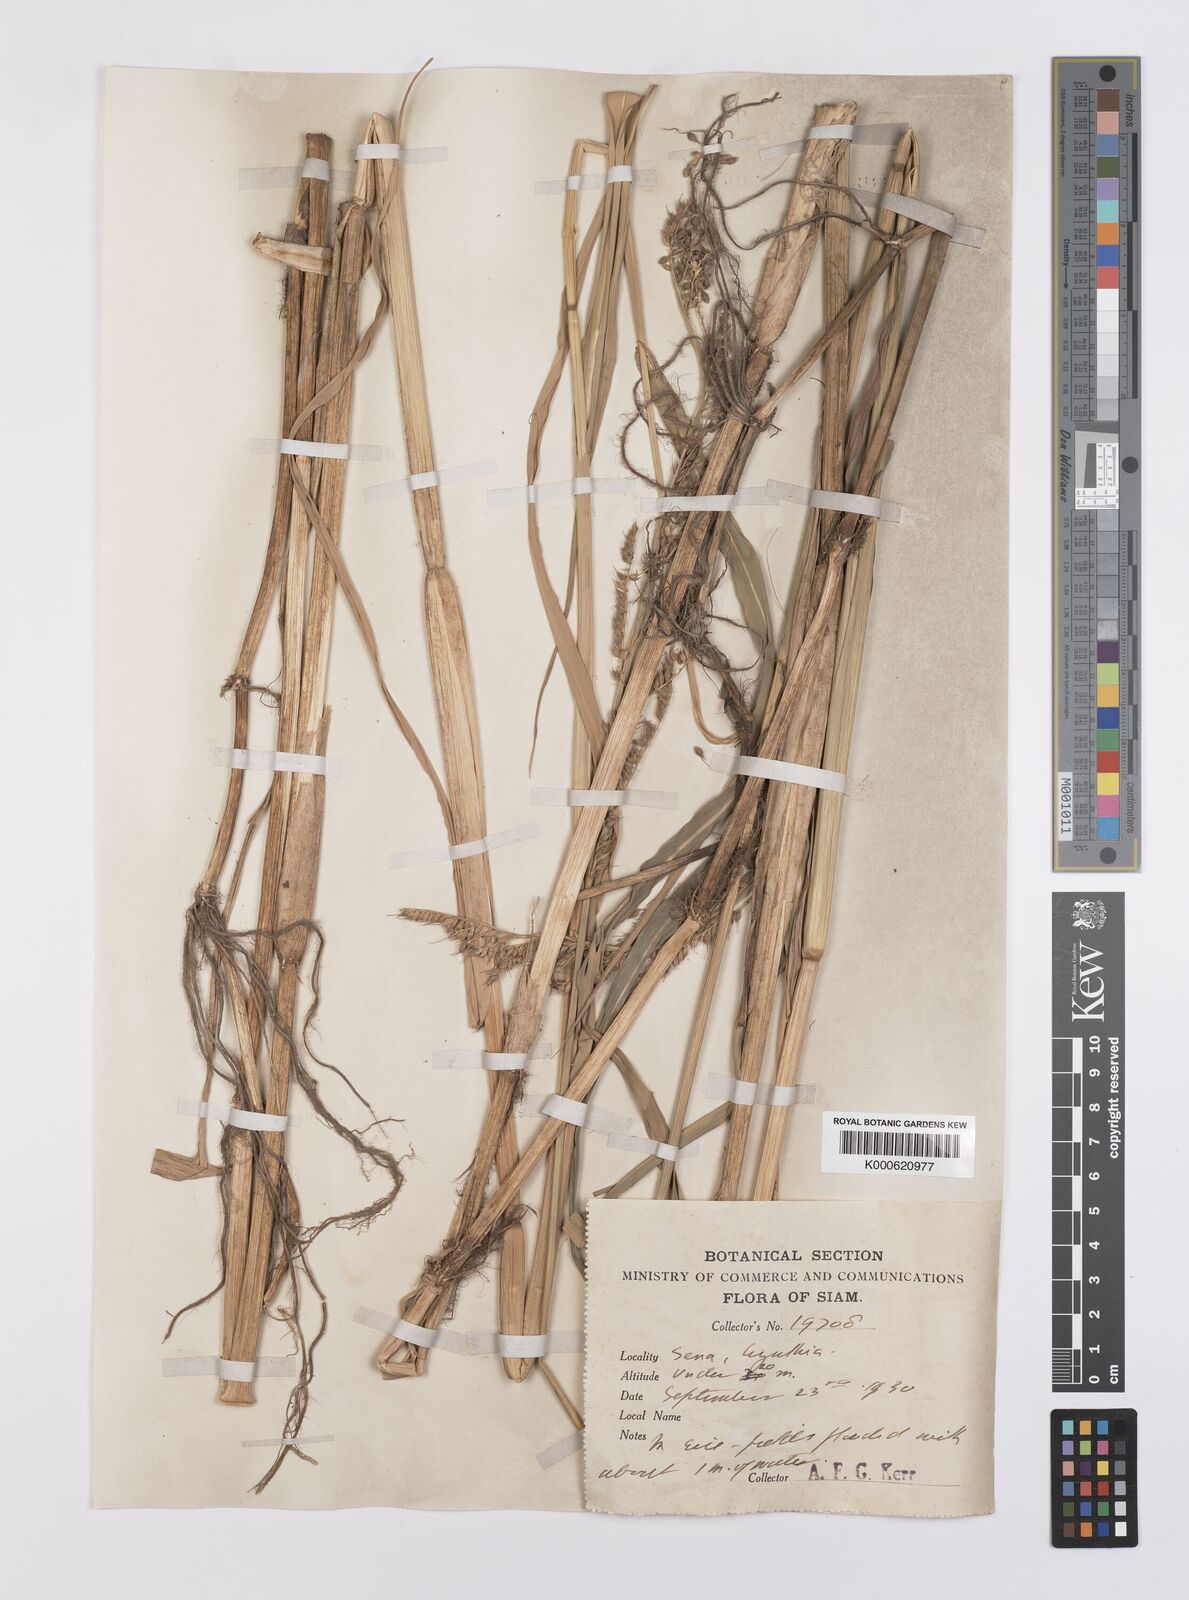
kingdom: Plantae
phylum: Tracheophyta
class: Liliopsida
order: Poales
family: Poaceae
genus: Echinochloa
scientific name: Echinochloa picta
